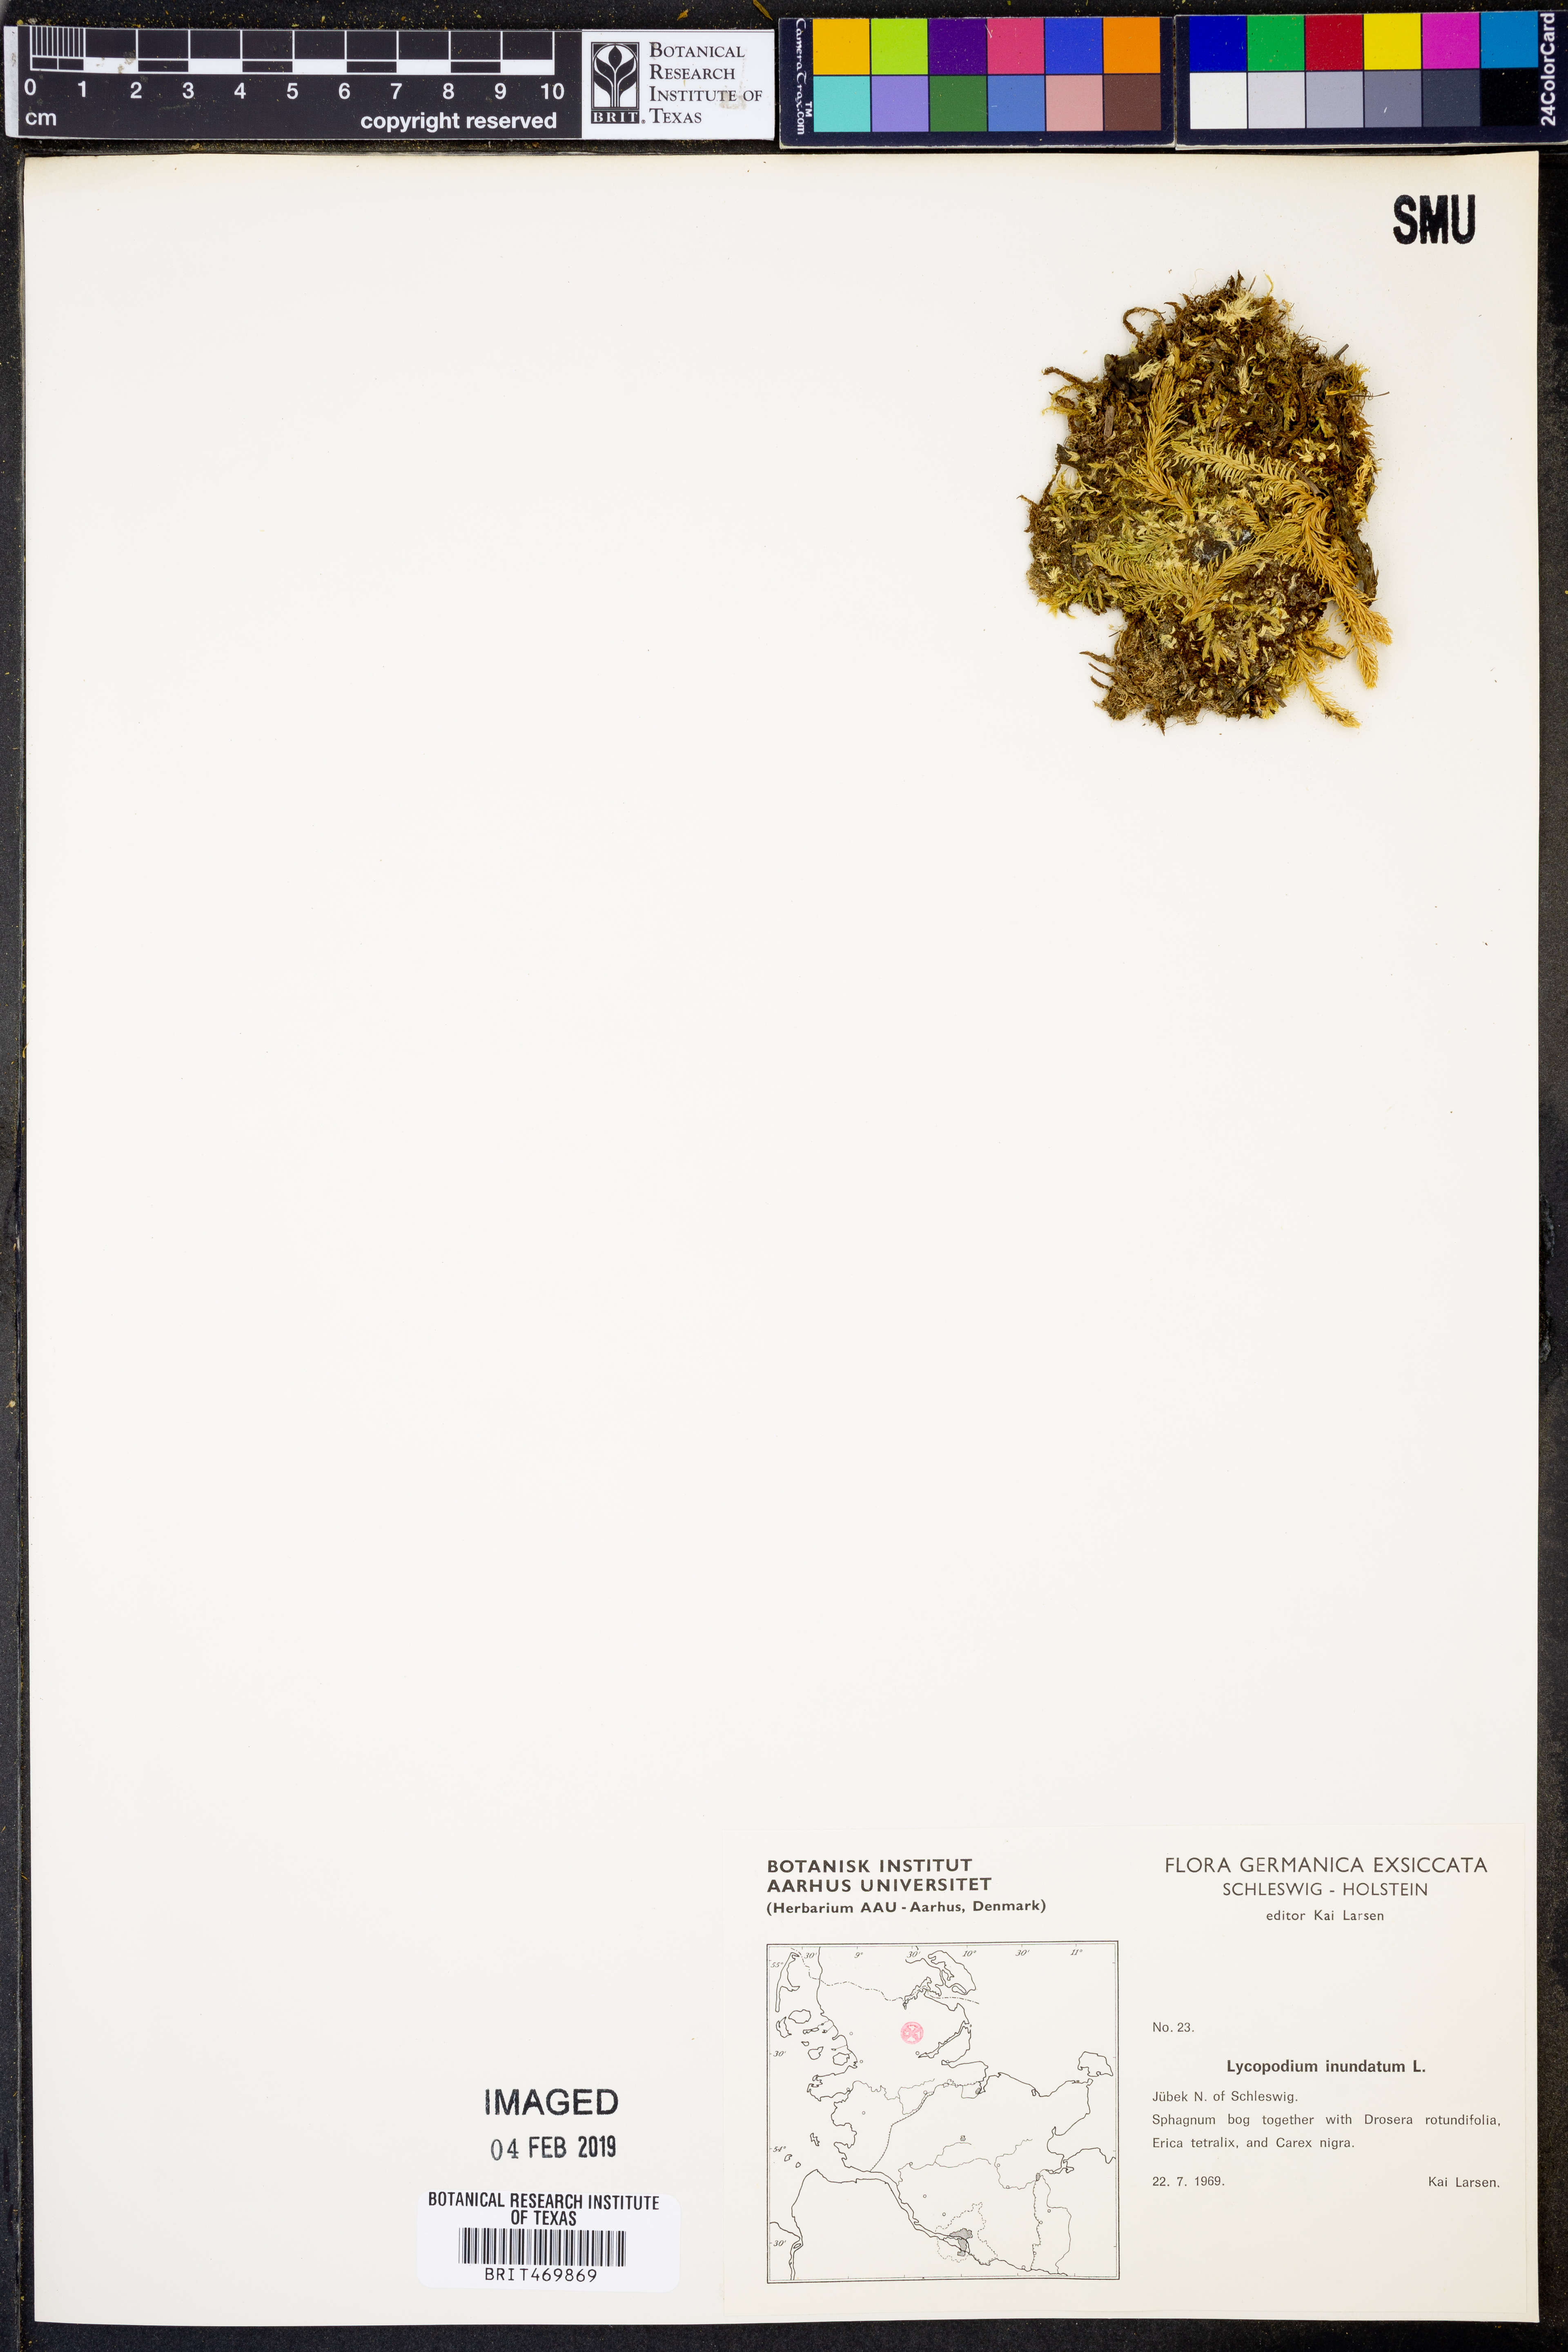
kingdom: Plantae
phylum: Tracheophyta
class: Lycopodiopsida
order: Lycopodiales
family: Lycopodiaceae
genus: Lycopodiella
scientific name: Lycopodiella inundata
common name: Marsh clubmoss
